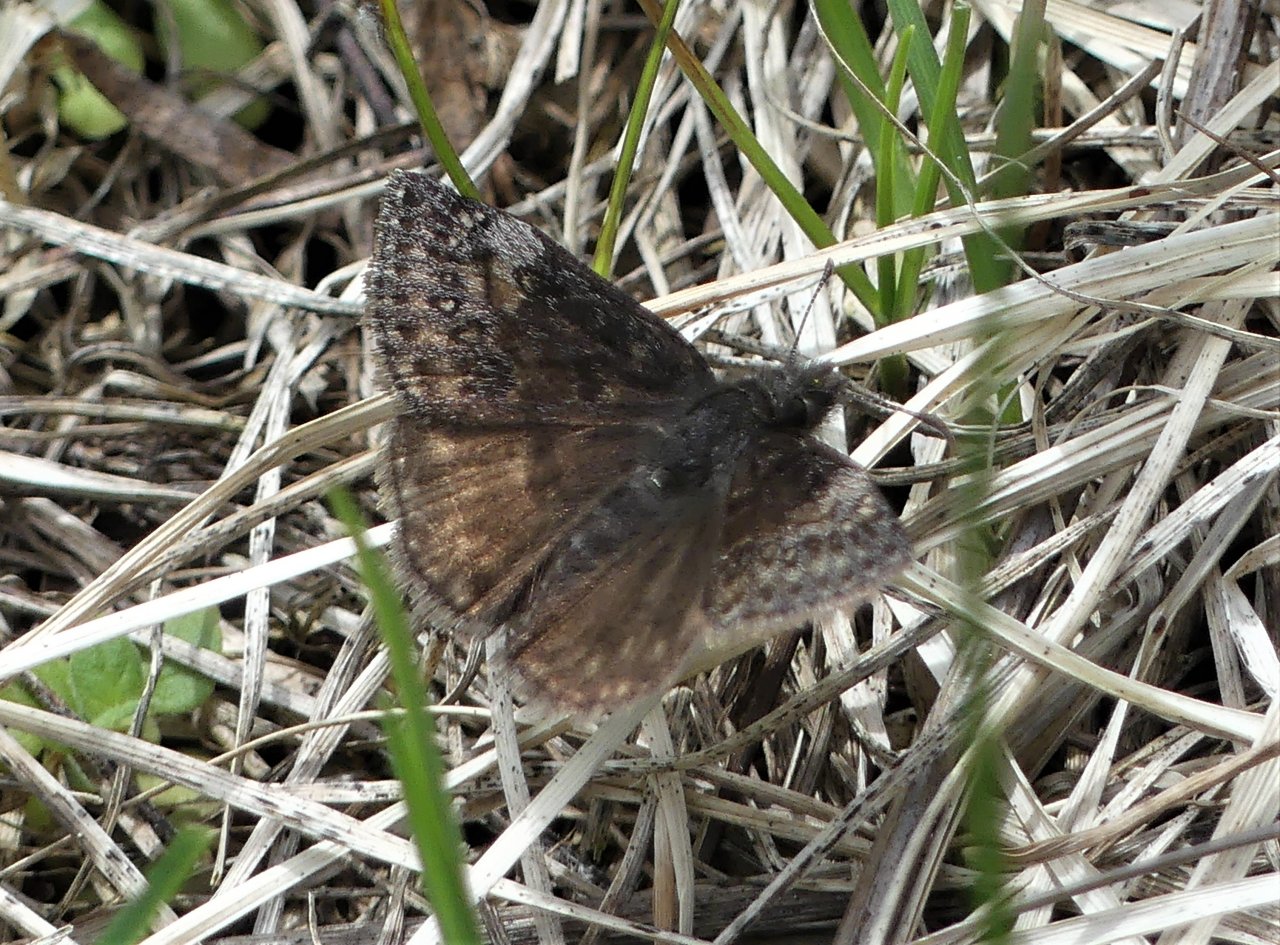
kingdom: Animalia
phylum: Arthropoda
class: Insecta
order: Lepidoptera
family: Hesperiidae
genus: Gesta
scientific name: Gesta
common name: Columbine Duskywing
